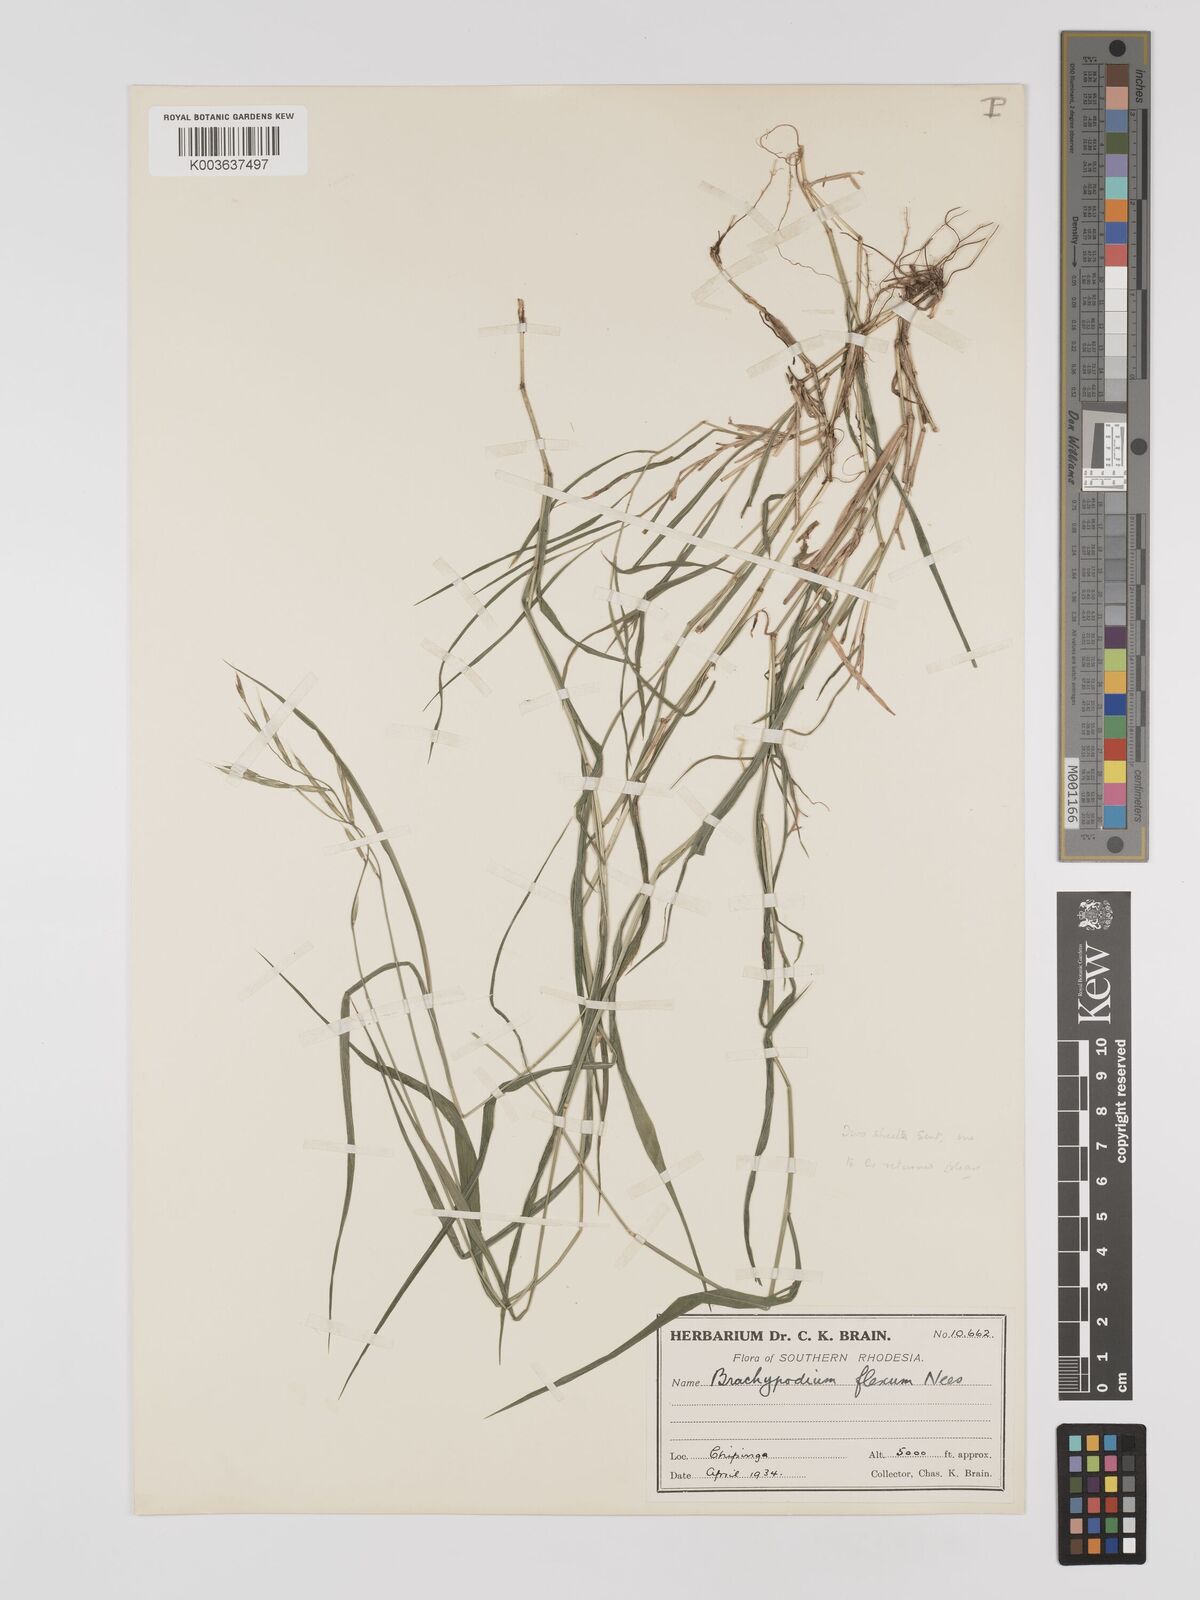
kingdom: Plantae
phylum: Tracheophyta
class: Liliopsida
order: Poales
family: Poaceae
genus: Brachypodium
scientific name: Brachypodium flexum
